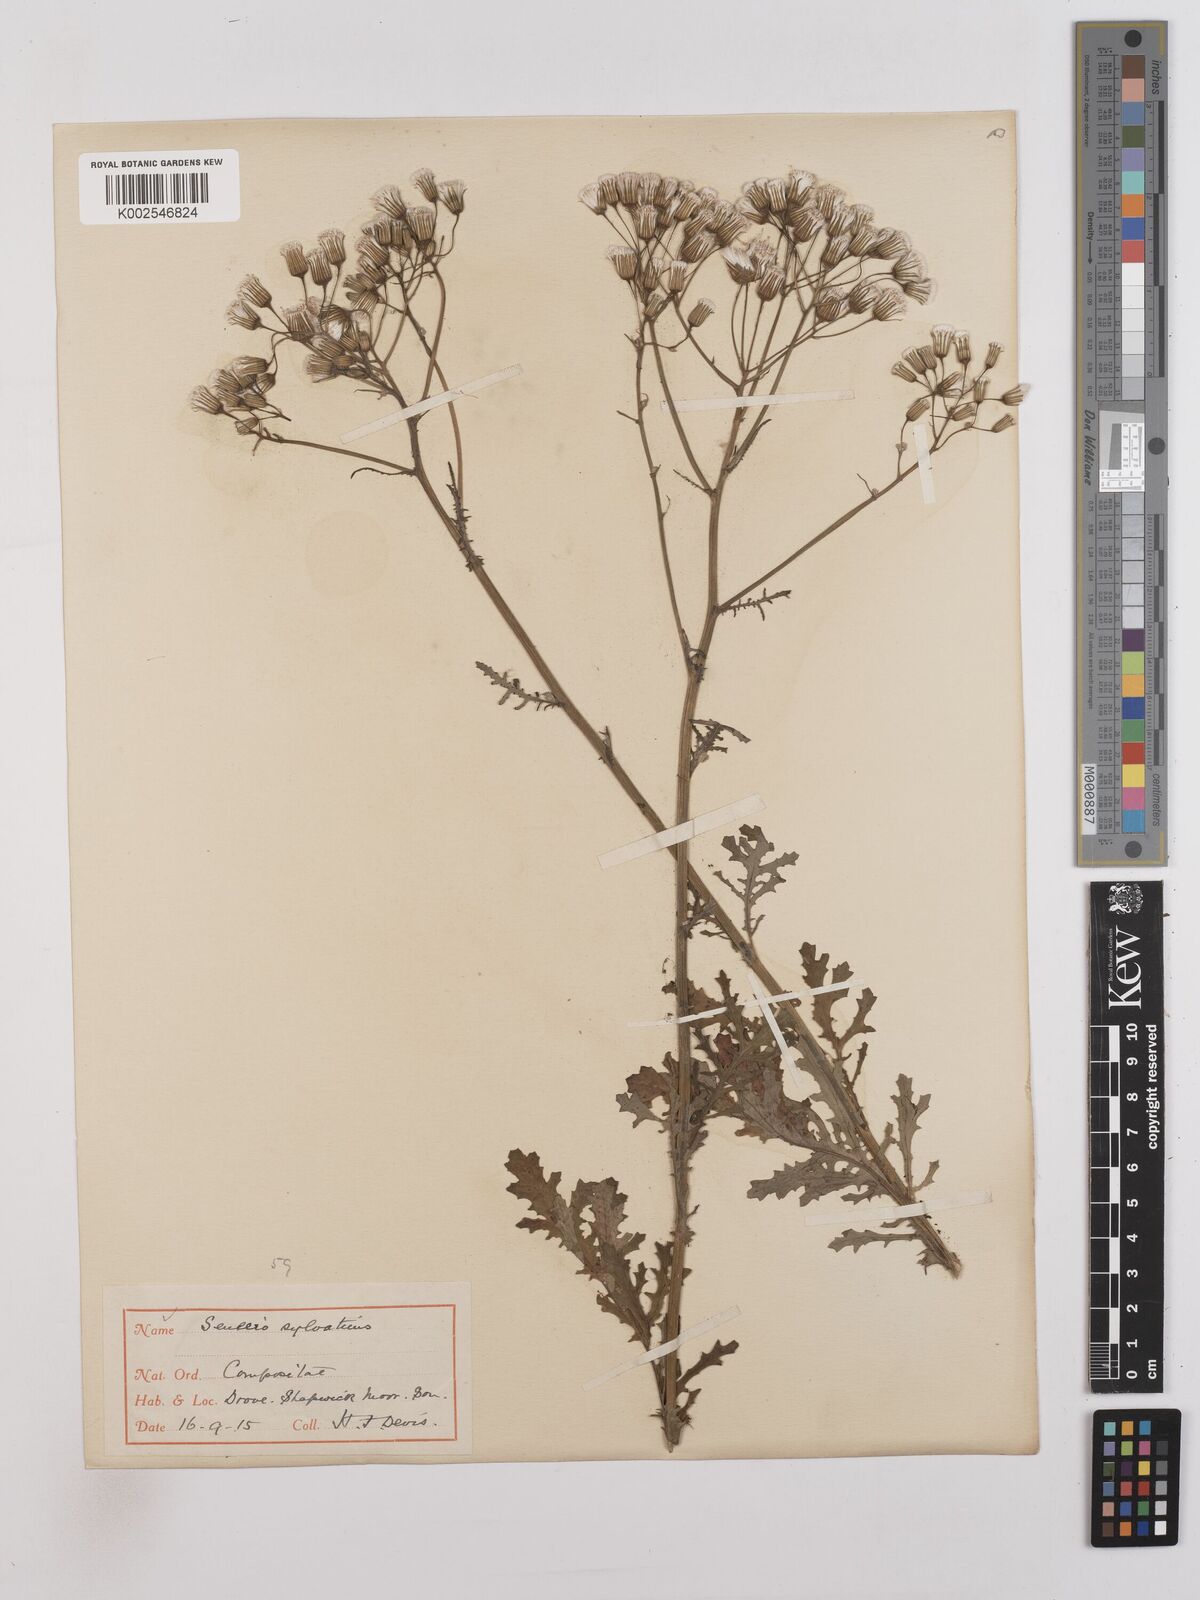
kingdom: Plantae
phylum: Tracheophyta
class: Magnoliopsida
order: Asterales
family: Asteraceae
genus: Senecio
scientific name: Senecio sylvaticus
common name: Woodland ragwort
